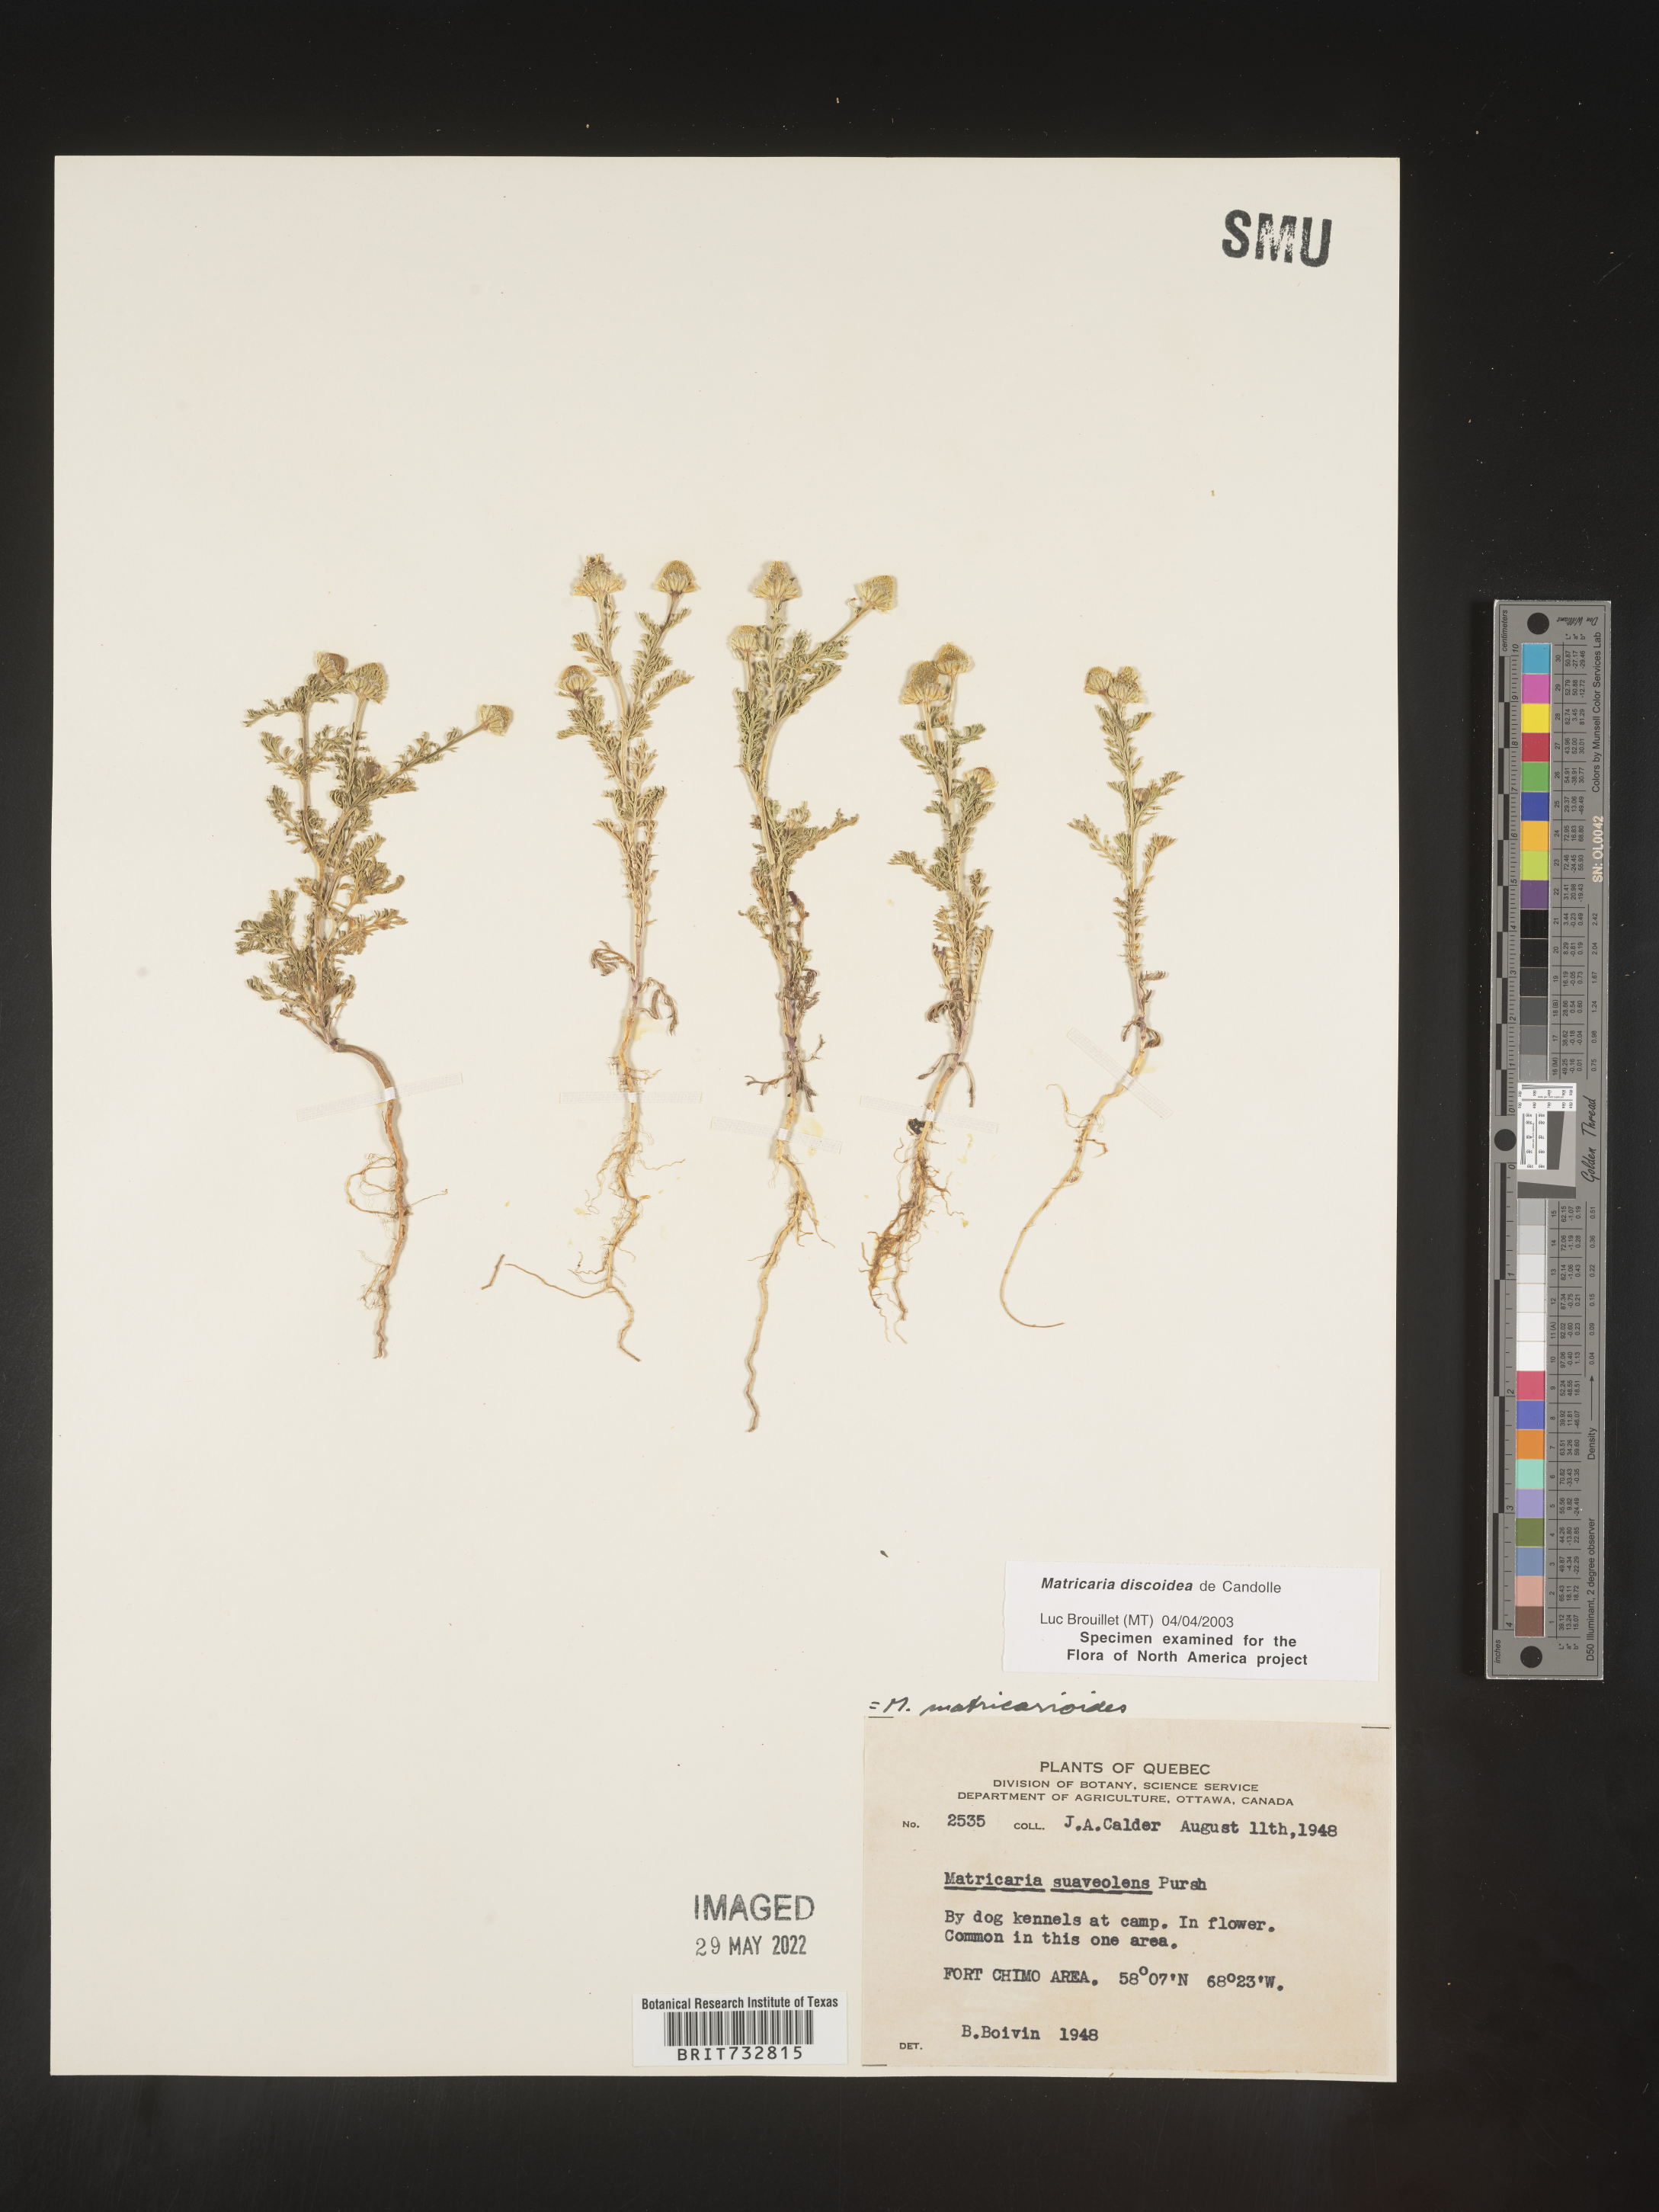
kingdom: Plantae
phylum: Tracheophyta
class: Magnoliopsida
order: Asterales
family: Asteraceae
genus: Matricaria
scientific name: Matricaria discoidea
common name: Disc mayweed
